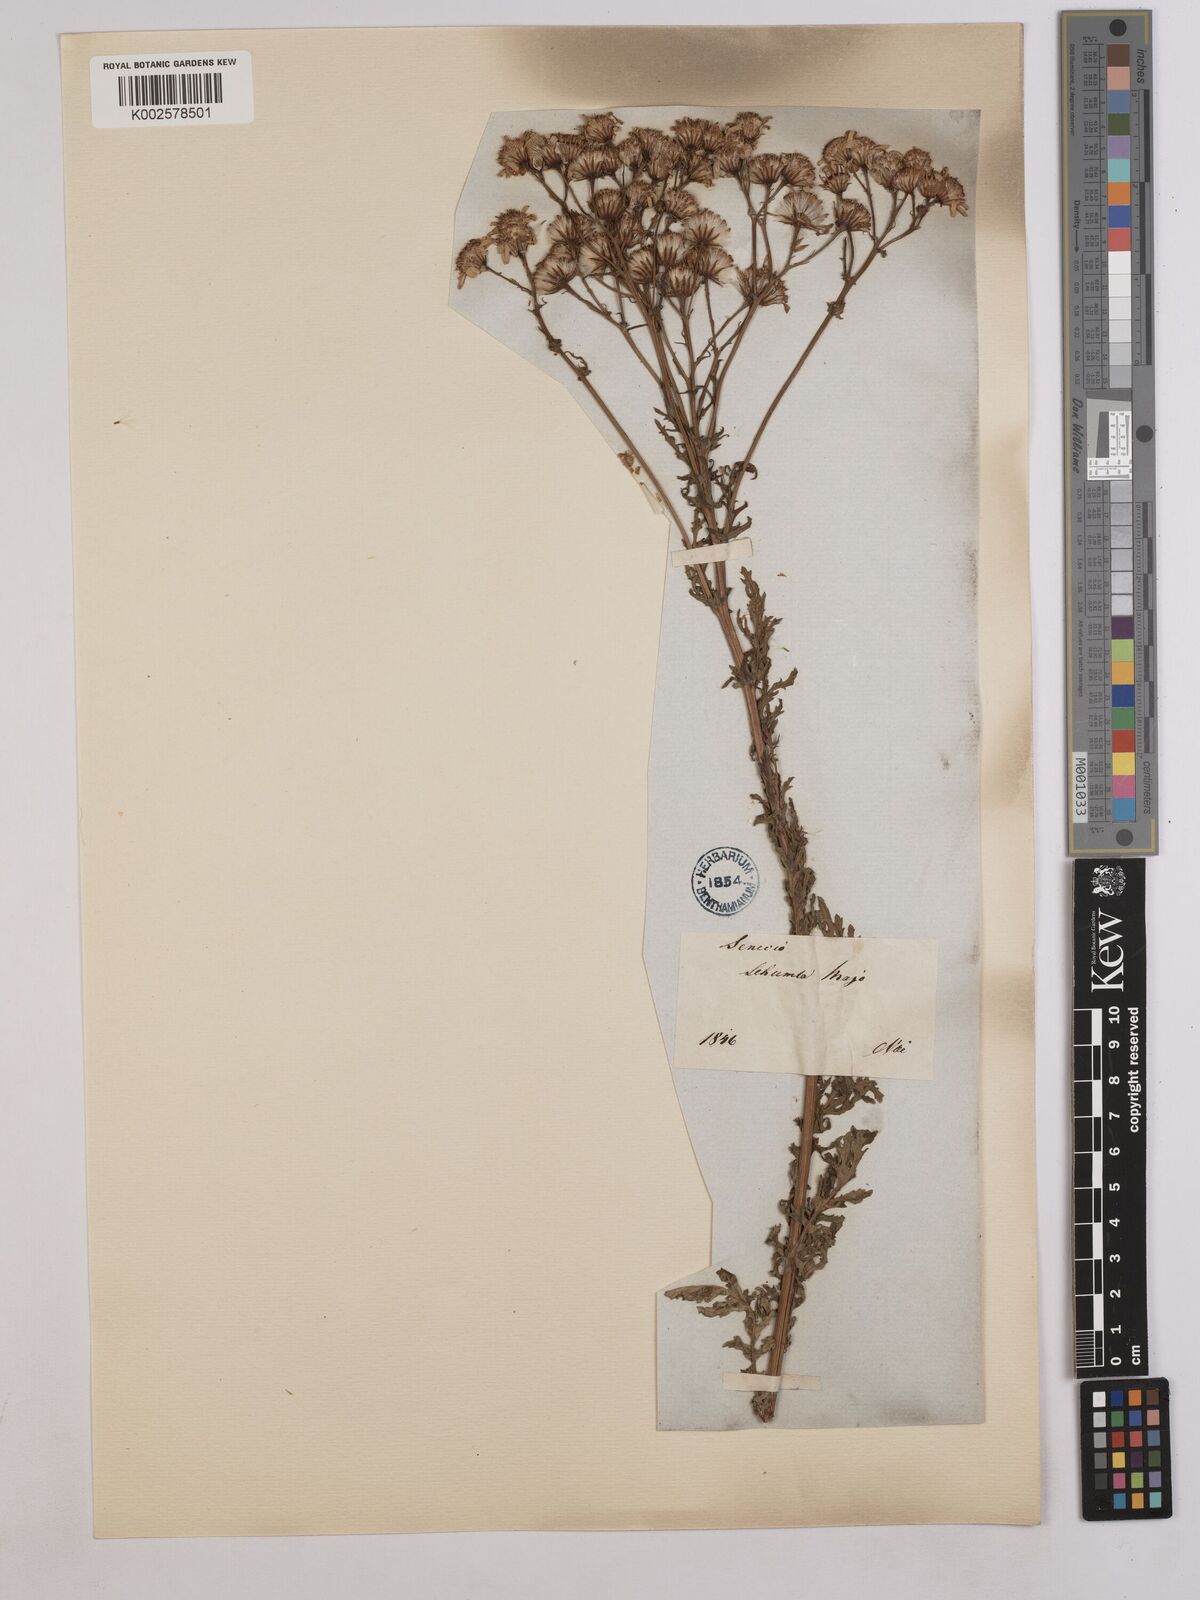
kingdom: Plantae
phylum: Tracheophyta
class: Magnoliopsida
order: Asterales
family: Asteraceae
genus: Jacobaea
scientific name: Jacobaea vulgaris
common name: Stinking willie
